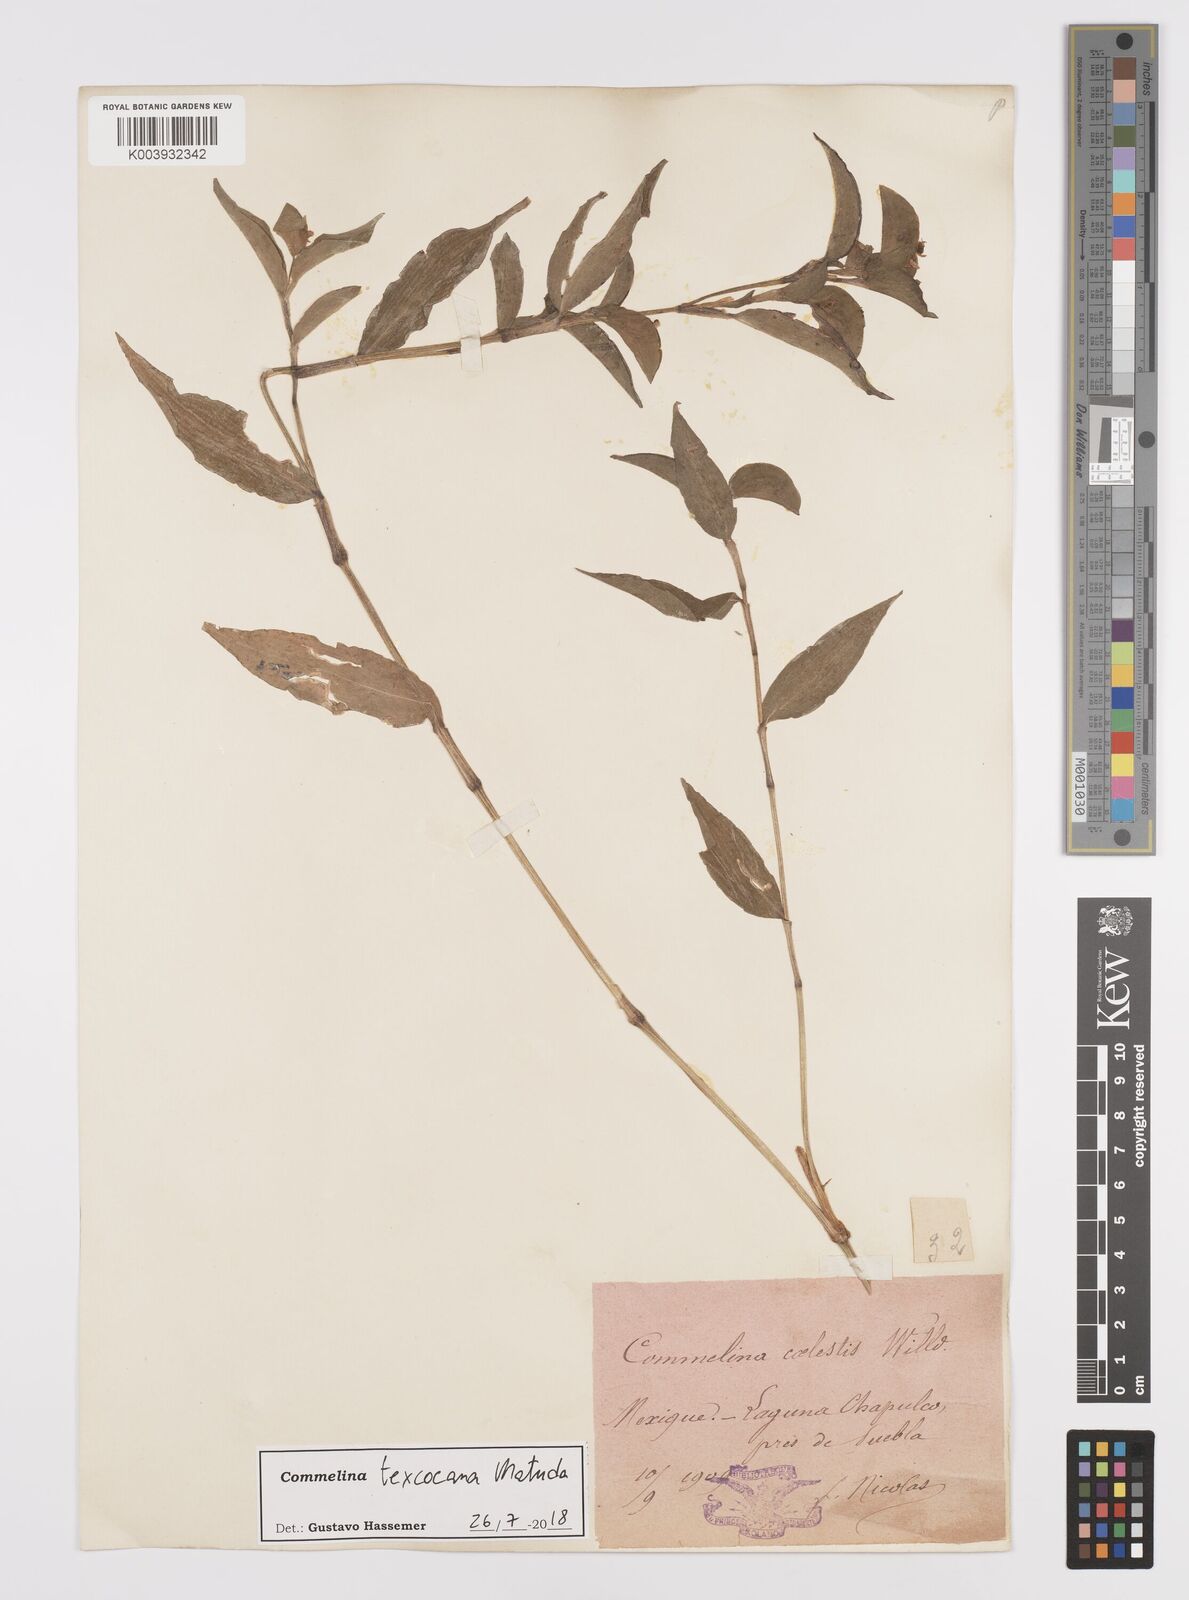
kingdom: Plantae
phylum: Tracheophyta
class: Liliopsida
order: Commelinales
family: Commelinaceae
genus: Commelina
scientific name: Commelina texcocana
